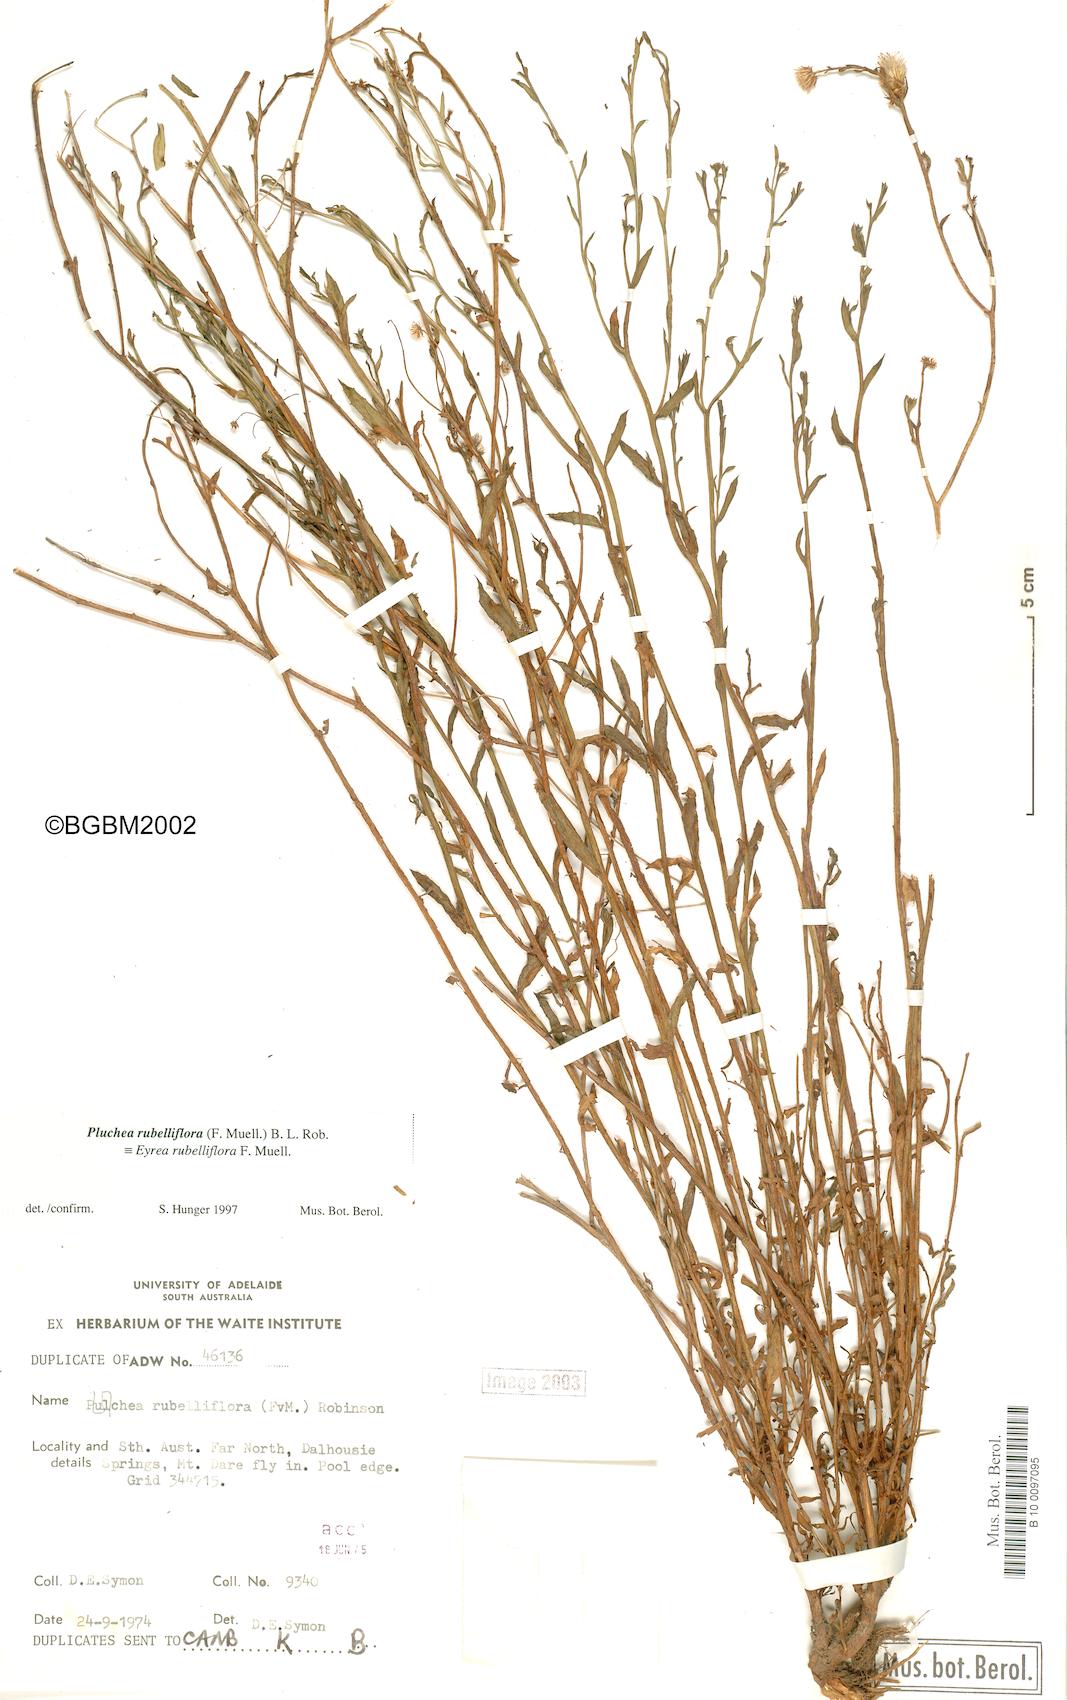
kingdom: Plantae
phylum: Tracheophyta
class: Magnoliopsida
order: Asterales
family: Asteraceae
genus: Pluchea
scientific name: Pluchea rubelliflora
